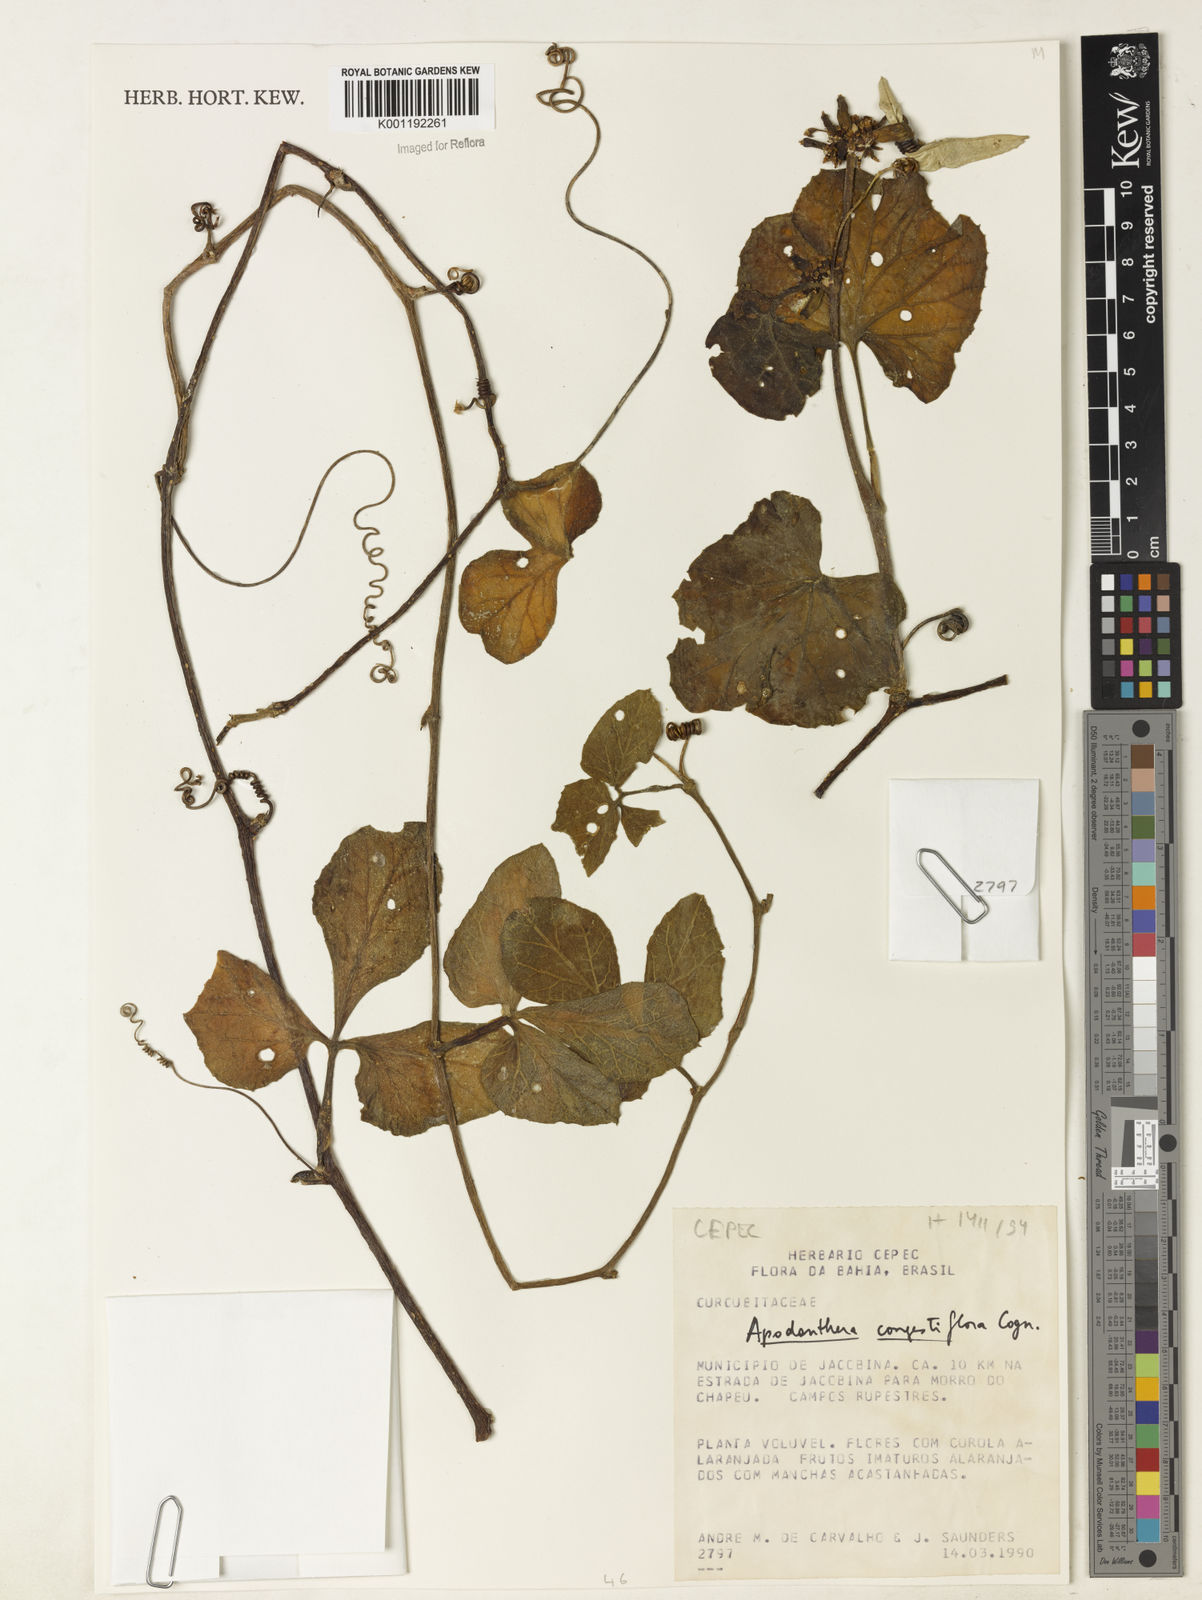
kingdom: Plantae
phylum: Tracheophyta
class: Magnoliopsida
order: Cucurbitales
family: Cucurbitaceae
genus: Apodanthera
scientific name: Apodanthera congestiflora
